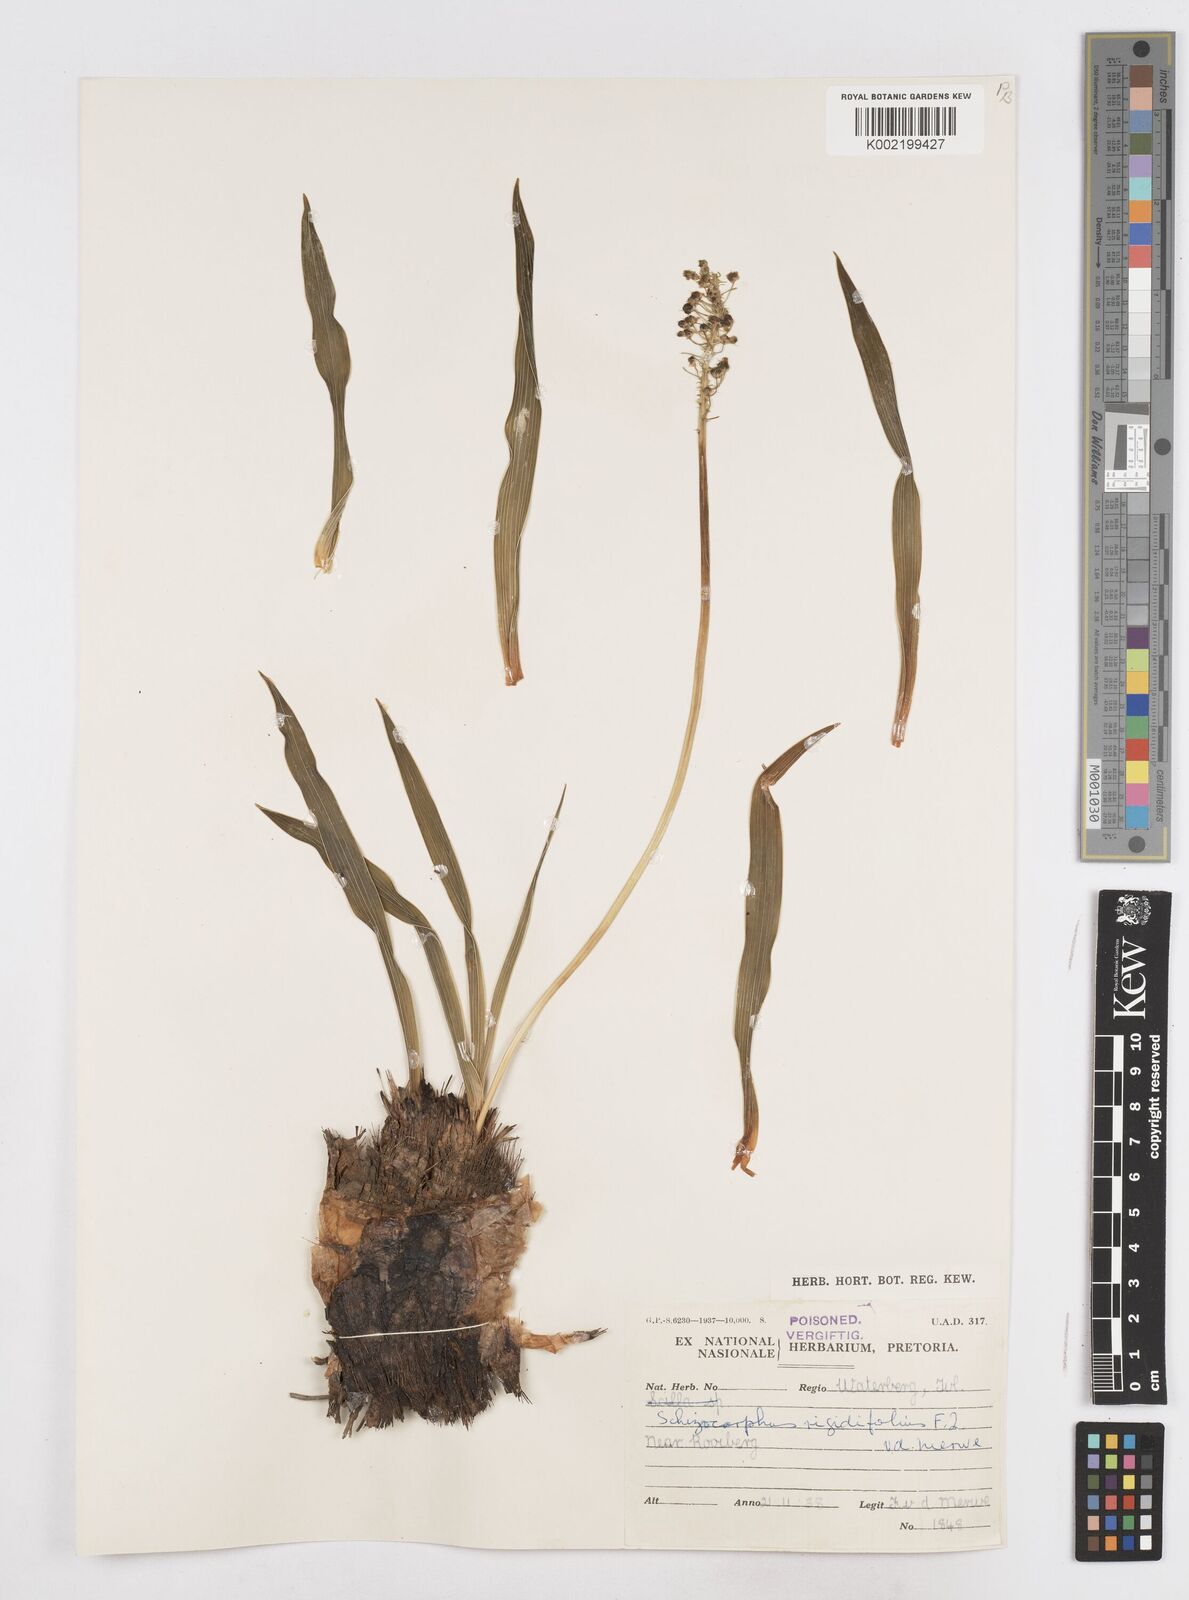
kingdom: Plantae
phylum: Tracheophyta
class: Liliopsida
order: Asparagales
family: Asparagaceae
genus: Schizocarphus
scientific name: Schizocarphus nervosus
